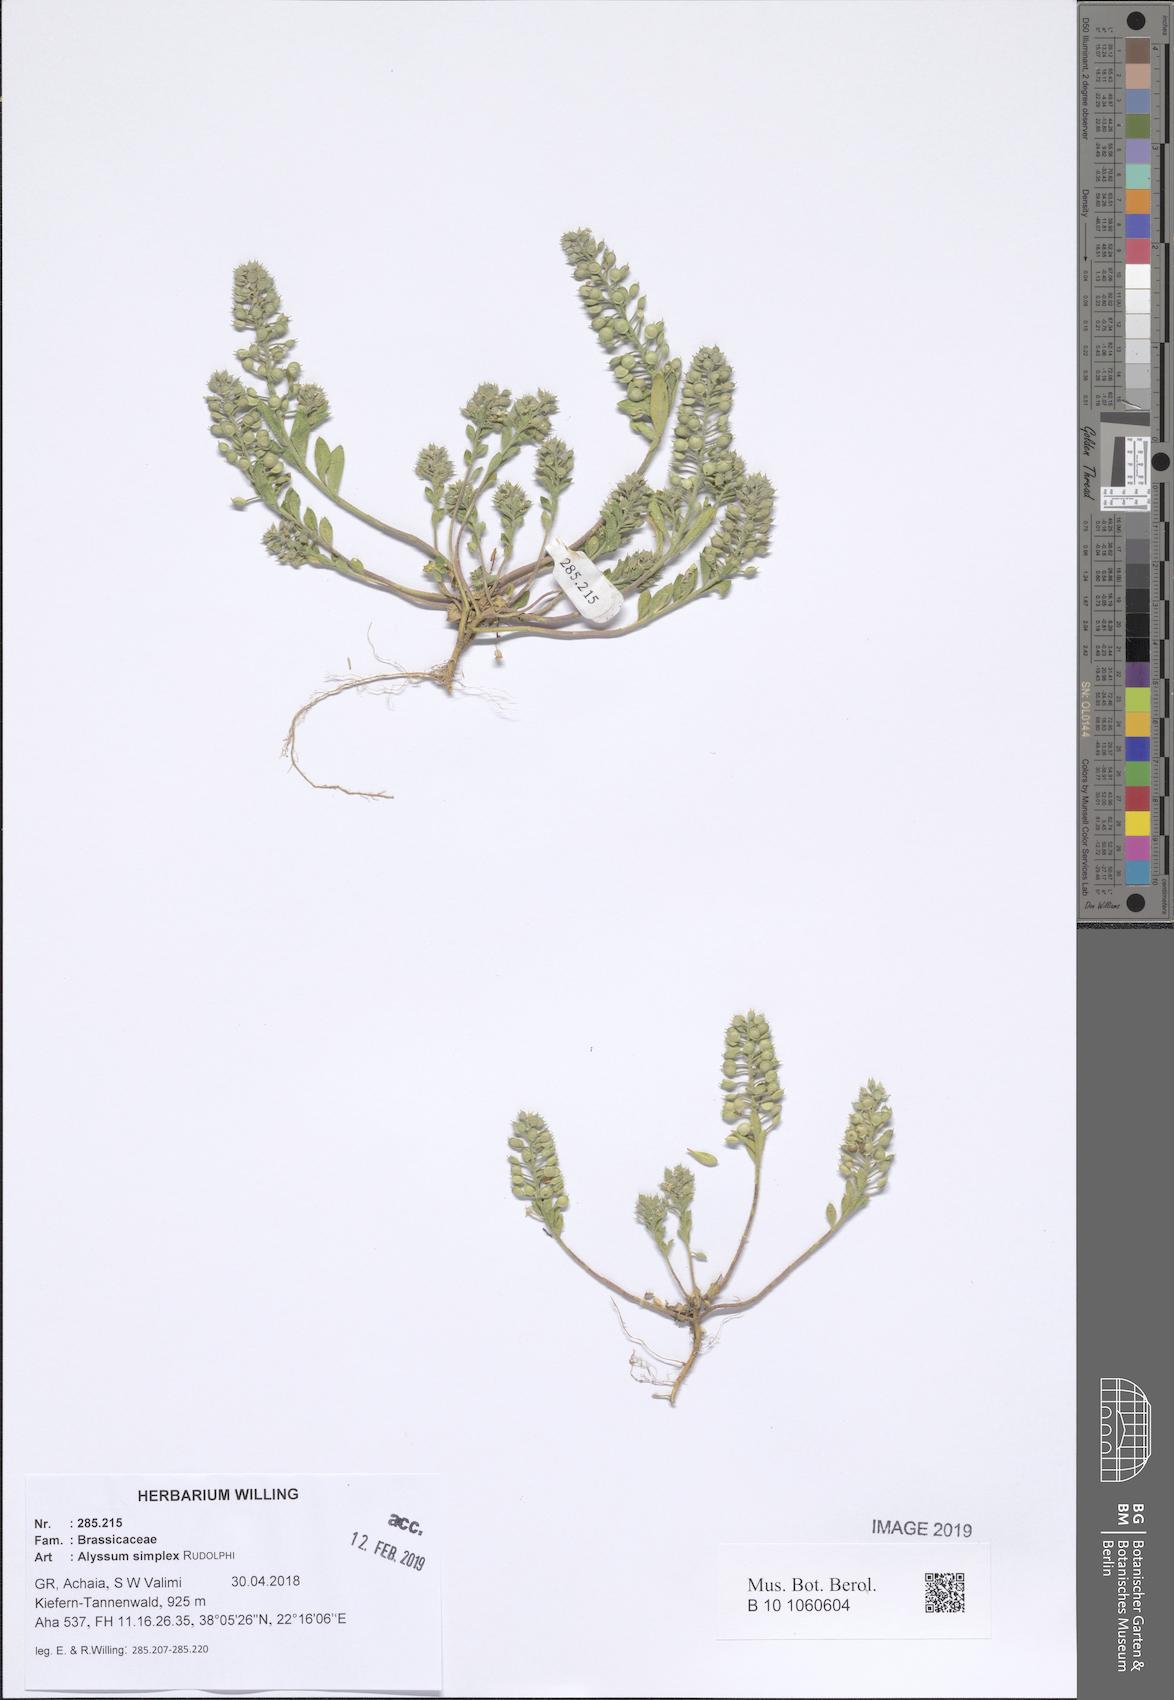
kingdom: Plantae
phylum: Tracheophyta
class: Magnoliopsida
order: Brassicales
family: Brassicaceae
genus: Alyssum
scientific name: Alyssum simplex
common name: Alyssum
